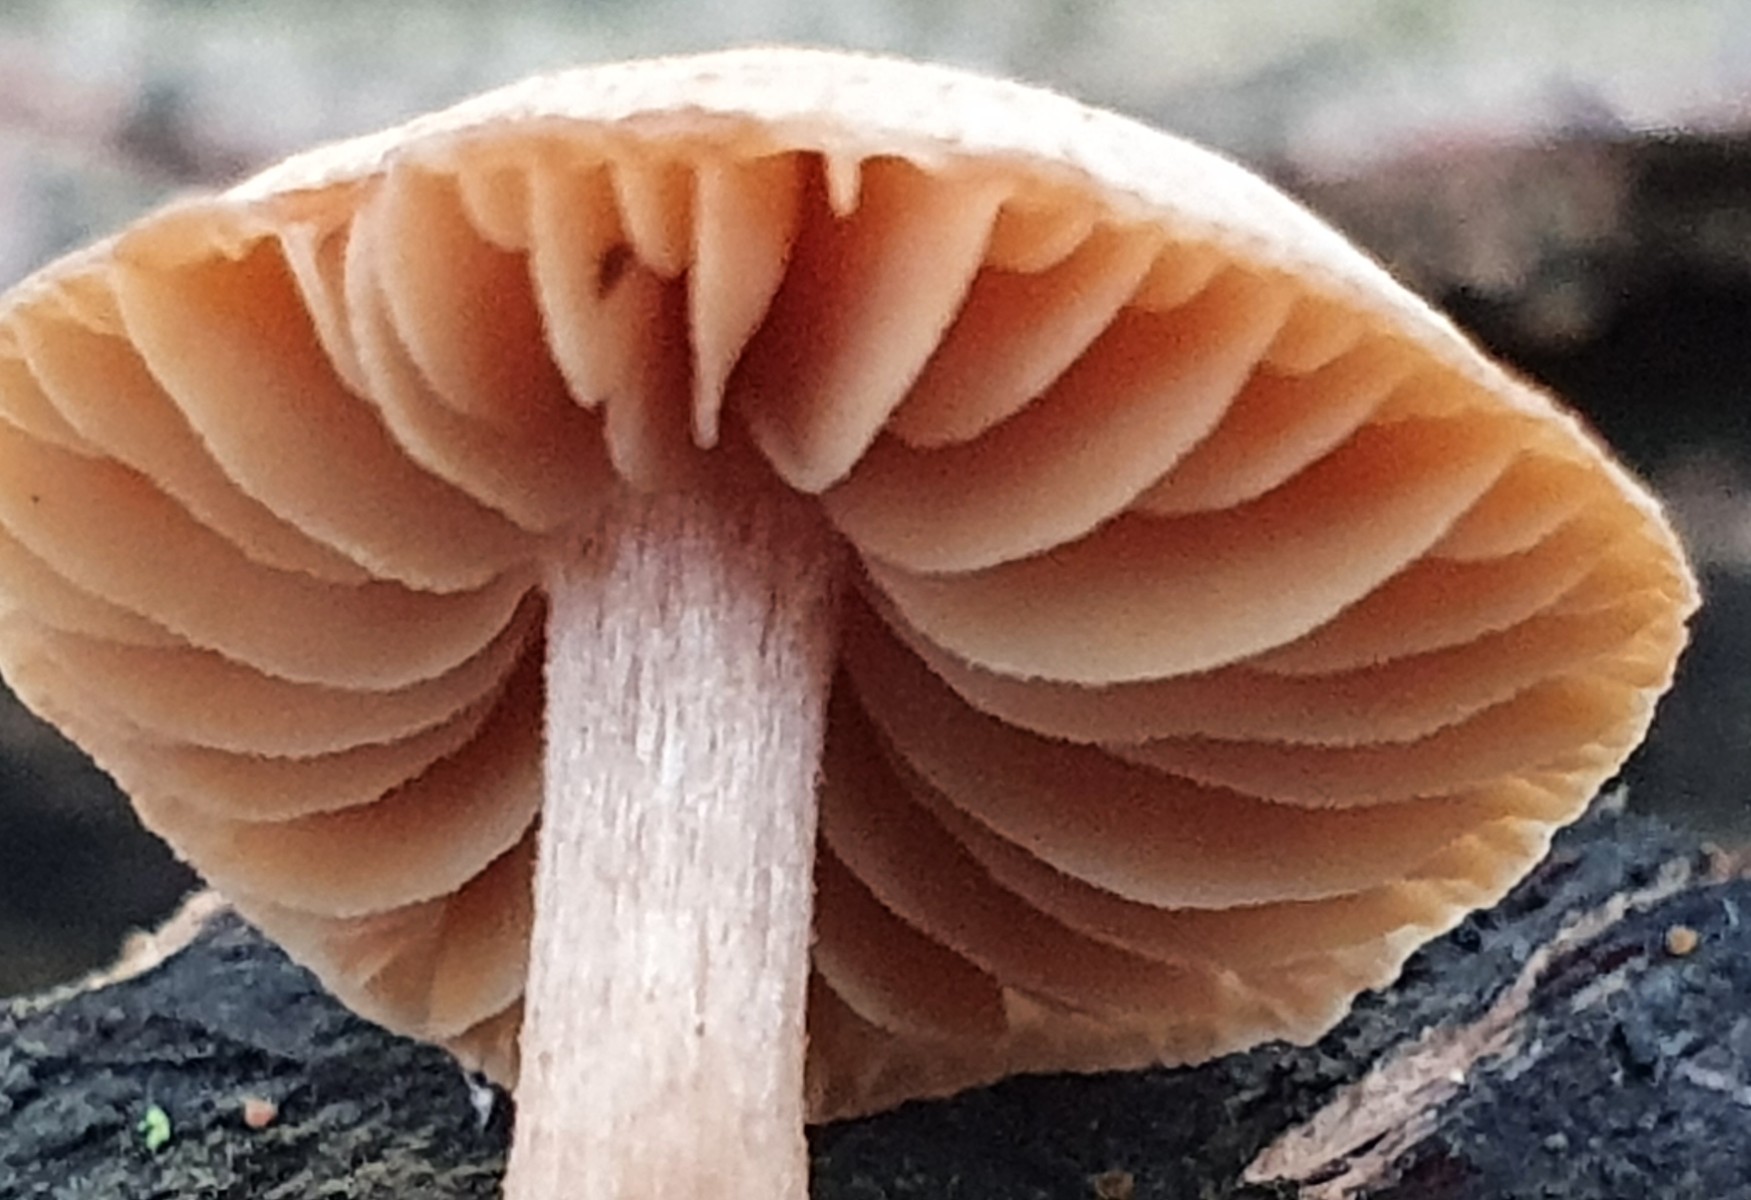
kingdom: Fungi
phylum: Basidiomycota
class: Agaricomycetes
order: Agaricales
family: Tubariaceae
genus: Tubaria
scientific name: Tubaria
